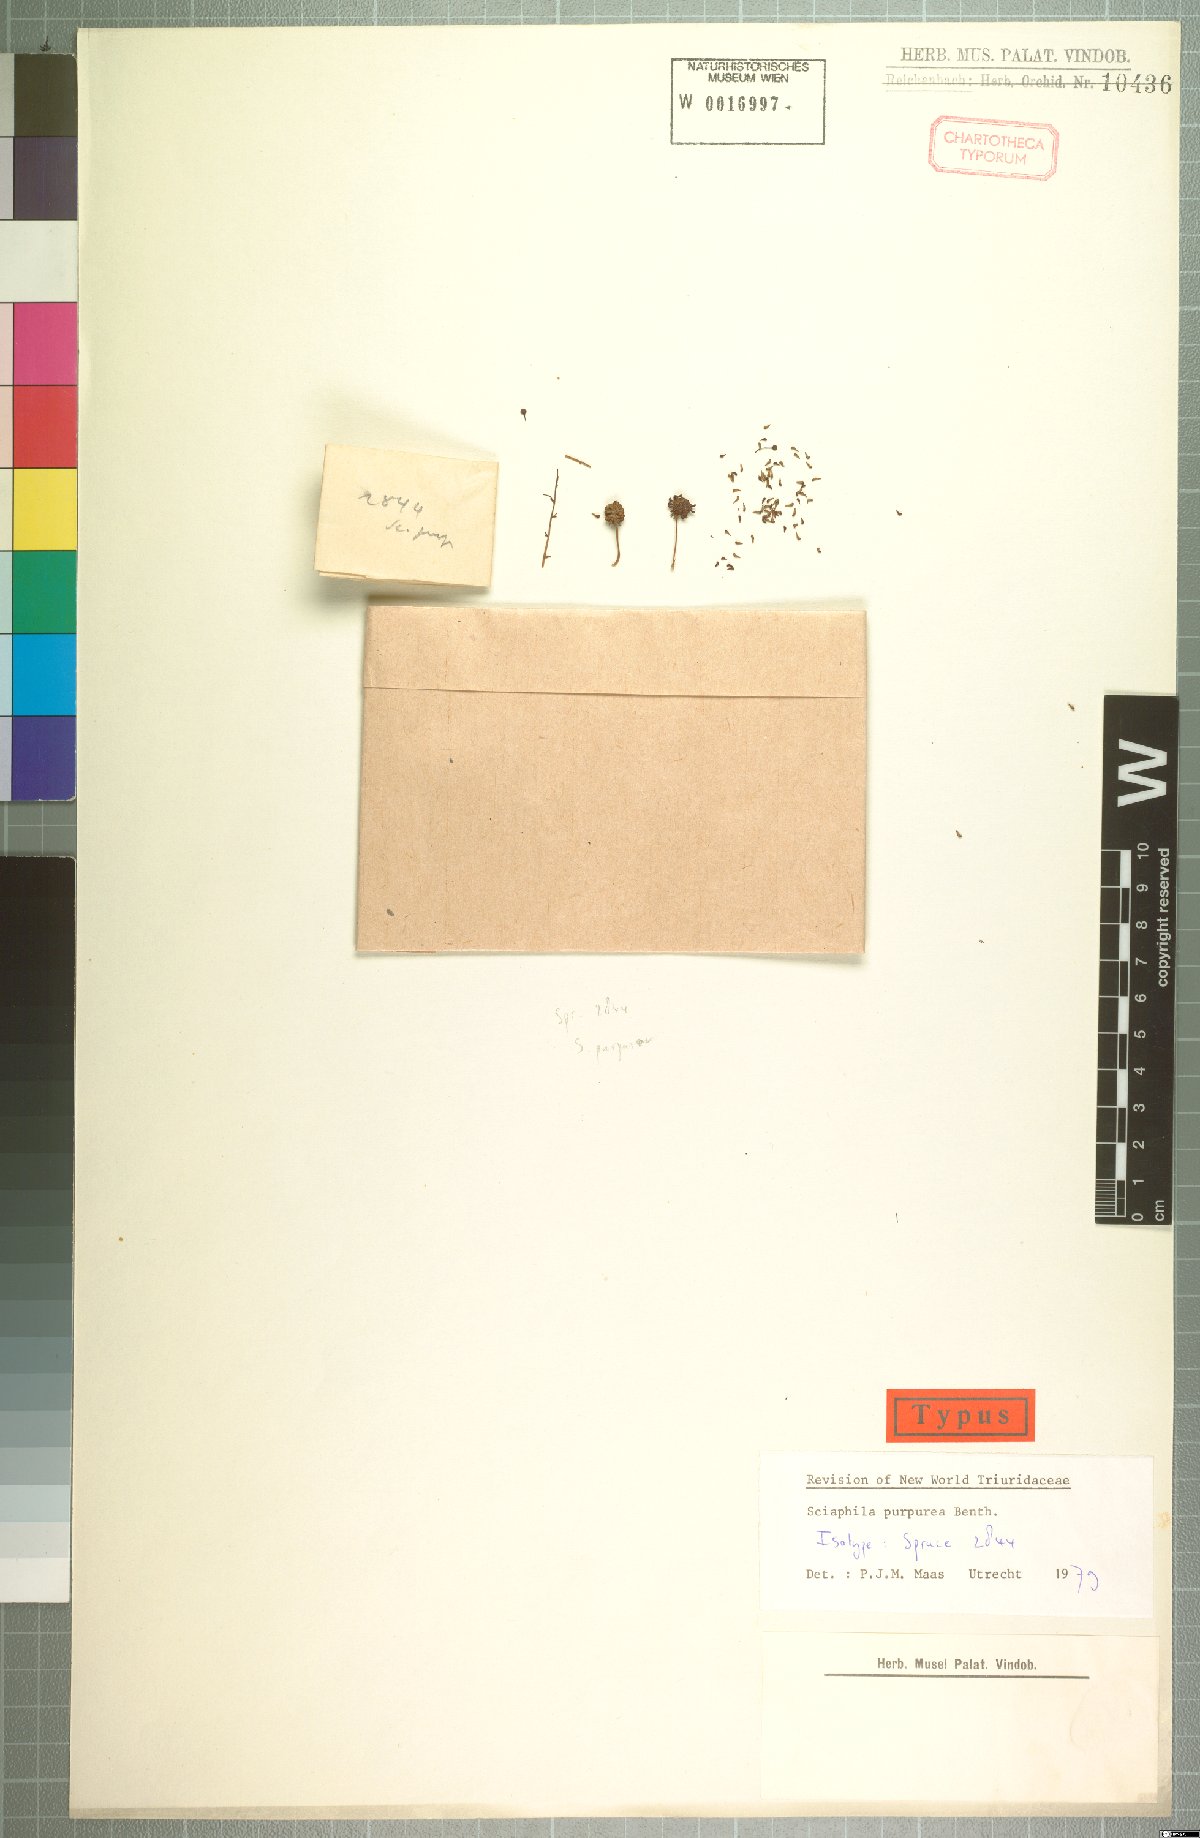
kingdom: Plantae
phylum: Tracheophyta
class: Liliopsida
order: Pandanales
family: Triuridaceae
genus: Sciaphila
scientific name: Sciaphila purpurea
